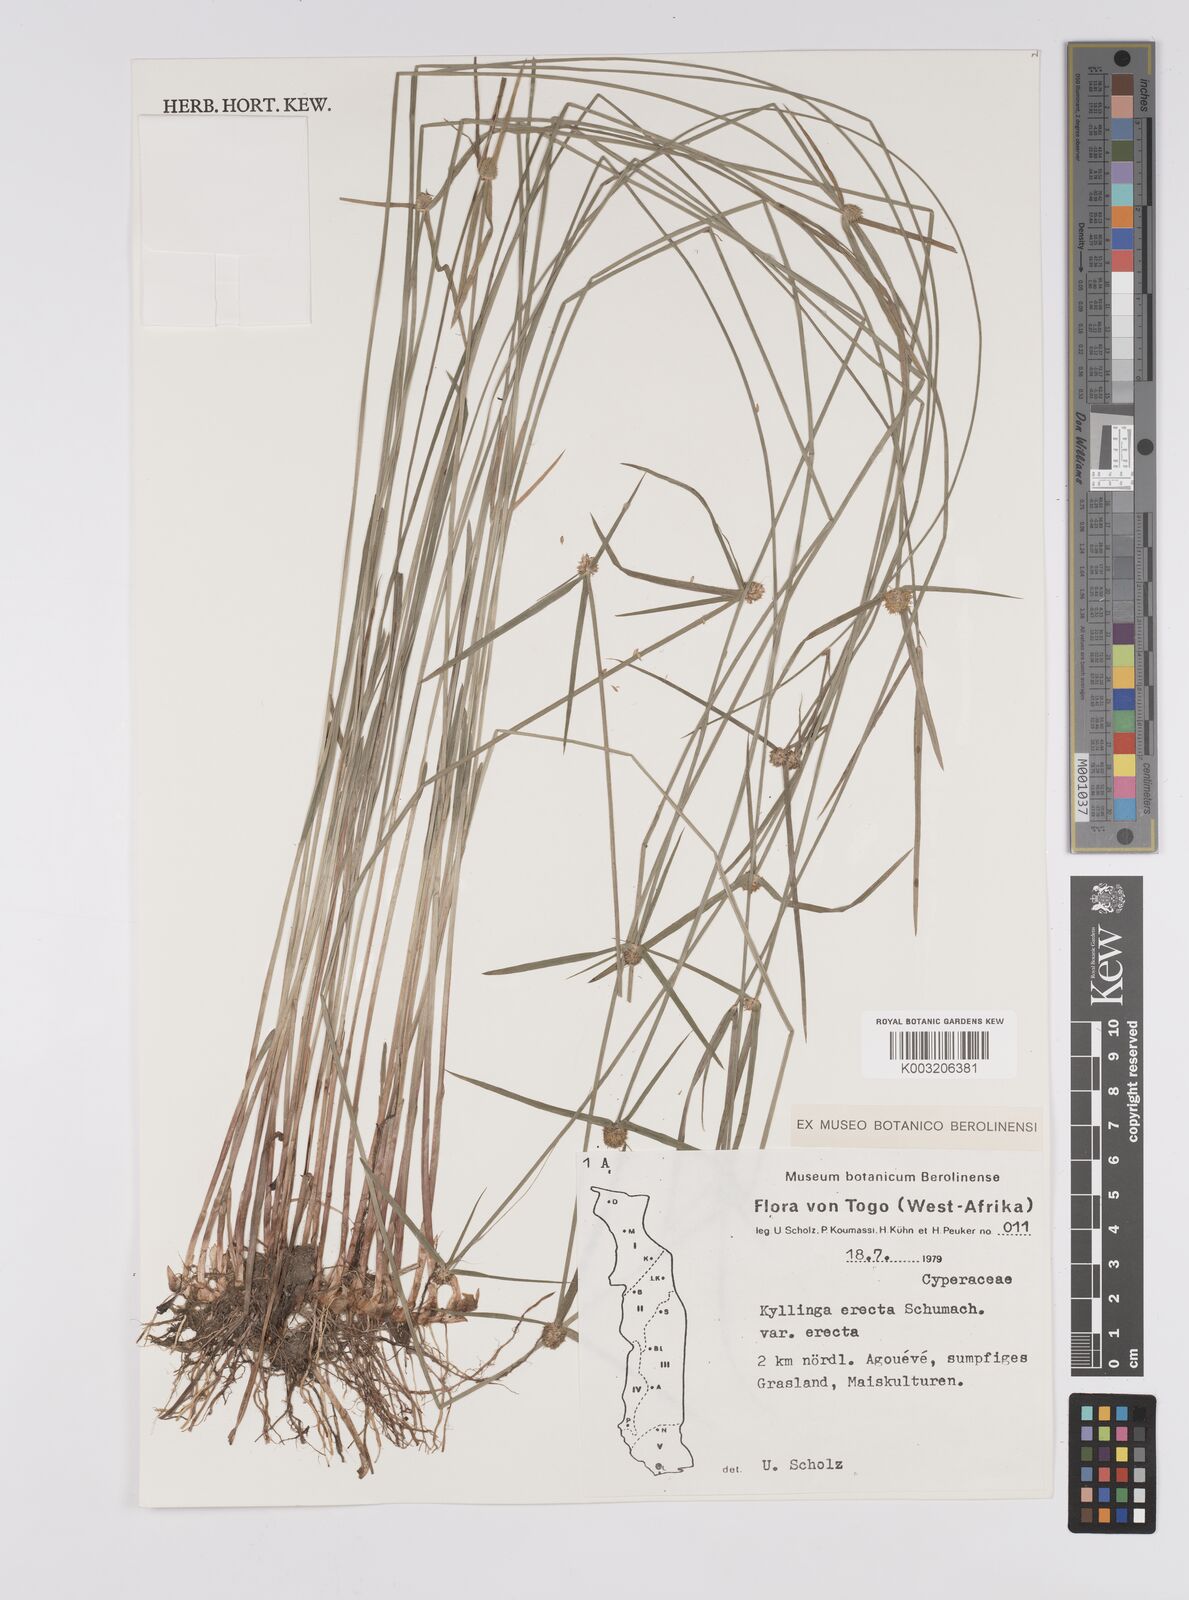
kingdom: Plantae
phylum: Tracheophyta
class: Liliopsida
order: Poales
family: Cyperaceae
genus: Cyperus
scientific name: Cyperus erectus
